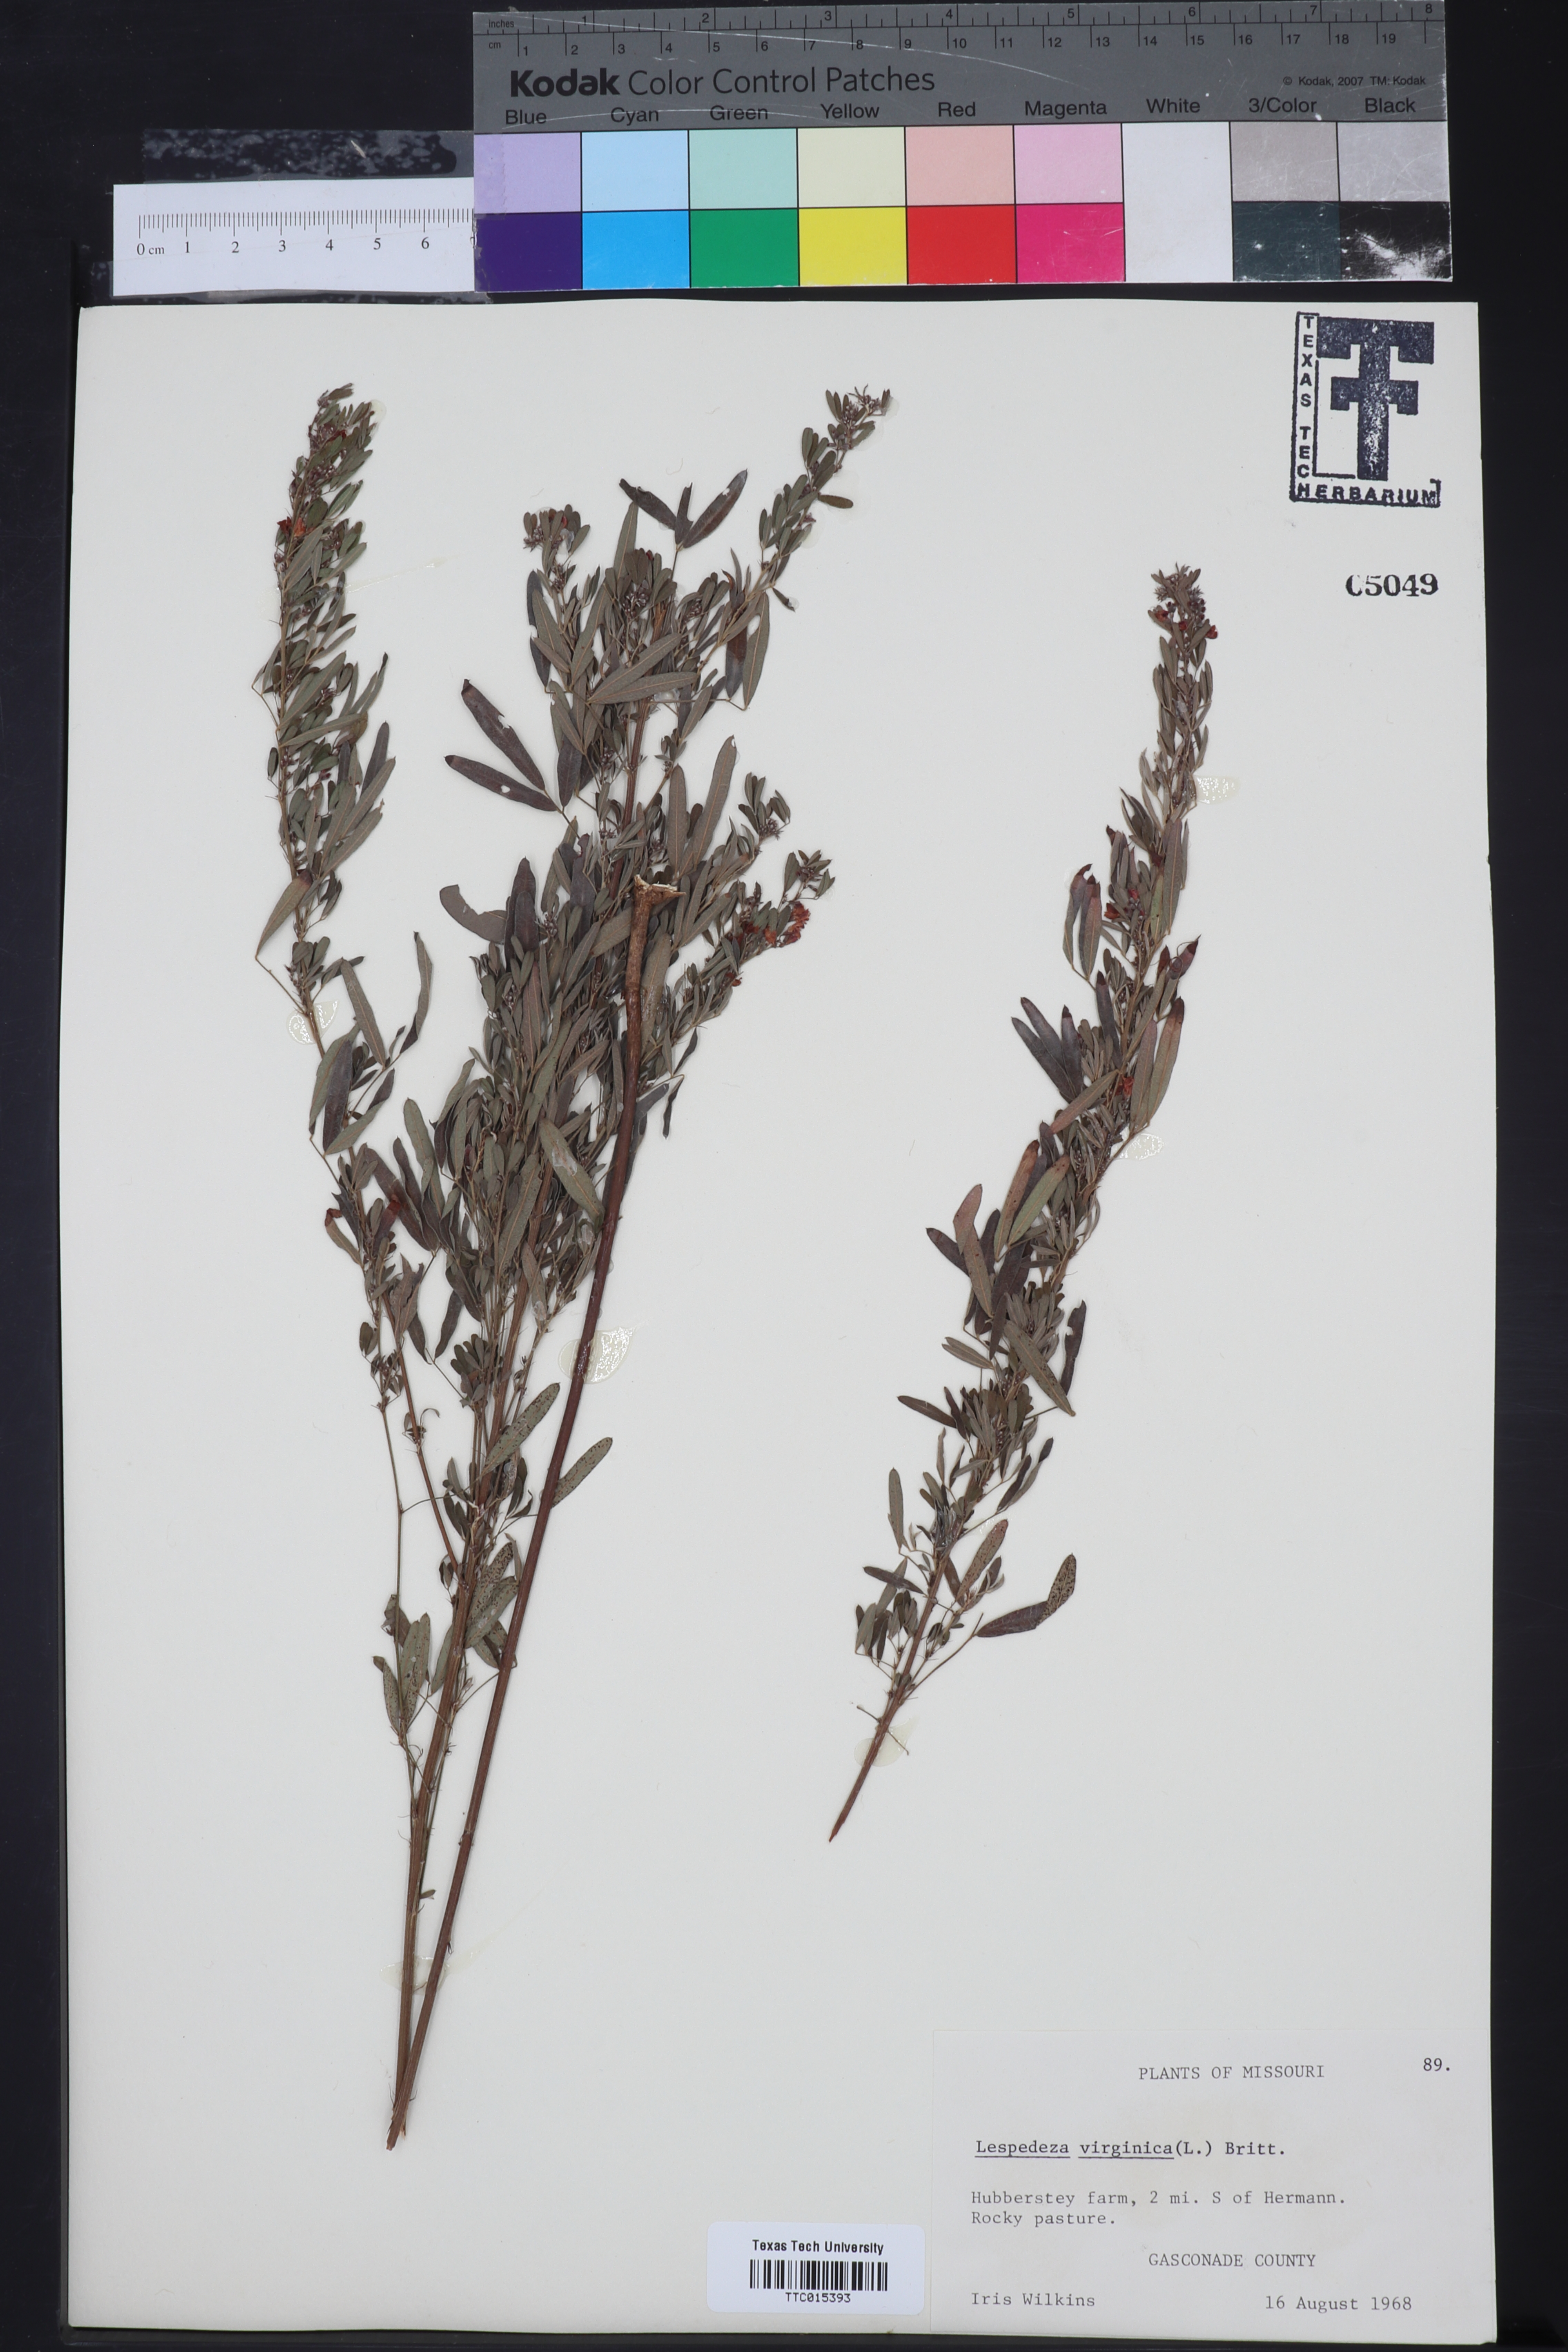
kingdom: Plantae
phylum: Tracheophyta
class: Magnoliopsida
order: Fabales
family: Fabaceae
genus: Lespedeza
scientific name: Lespedeza virginica
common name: Slender bush-clover
